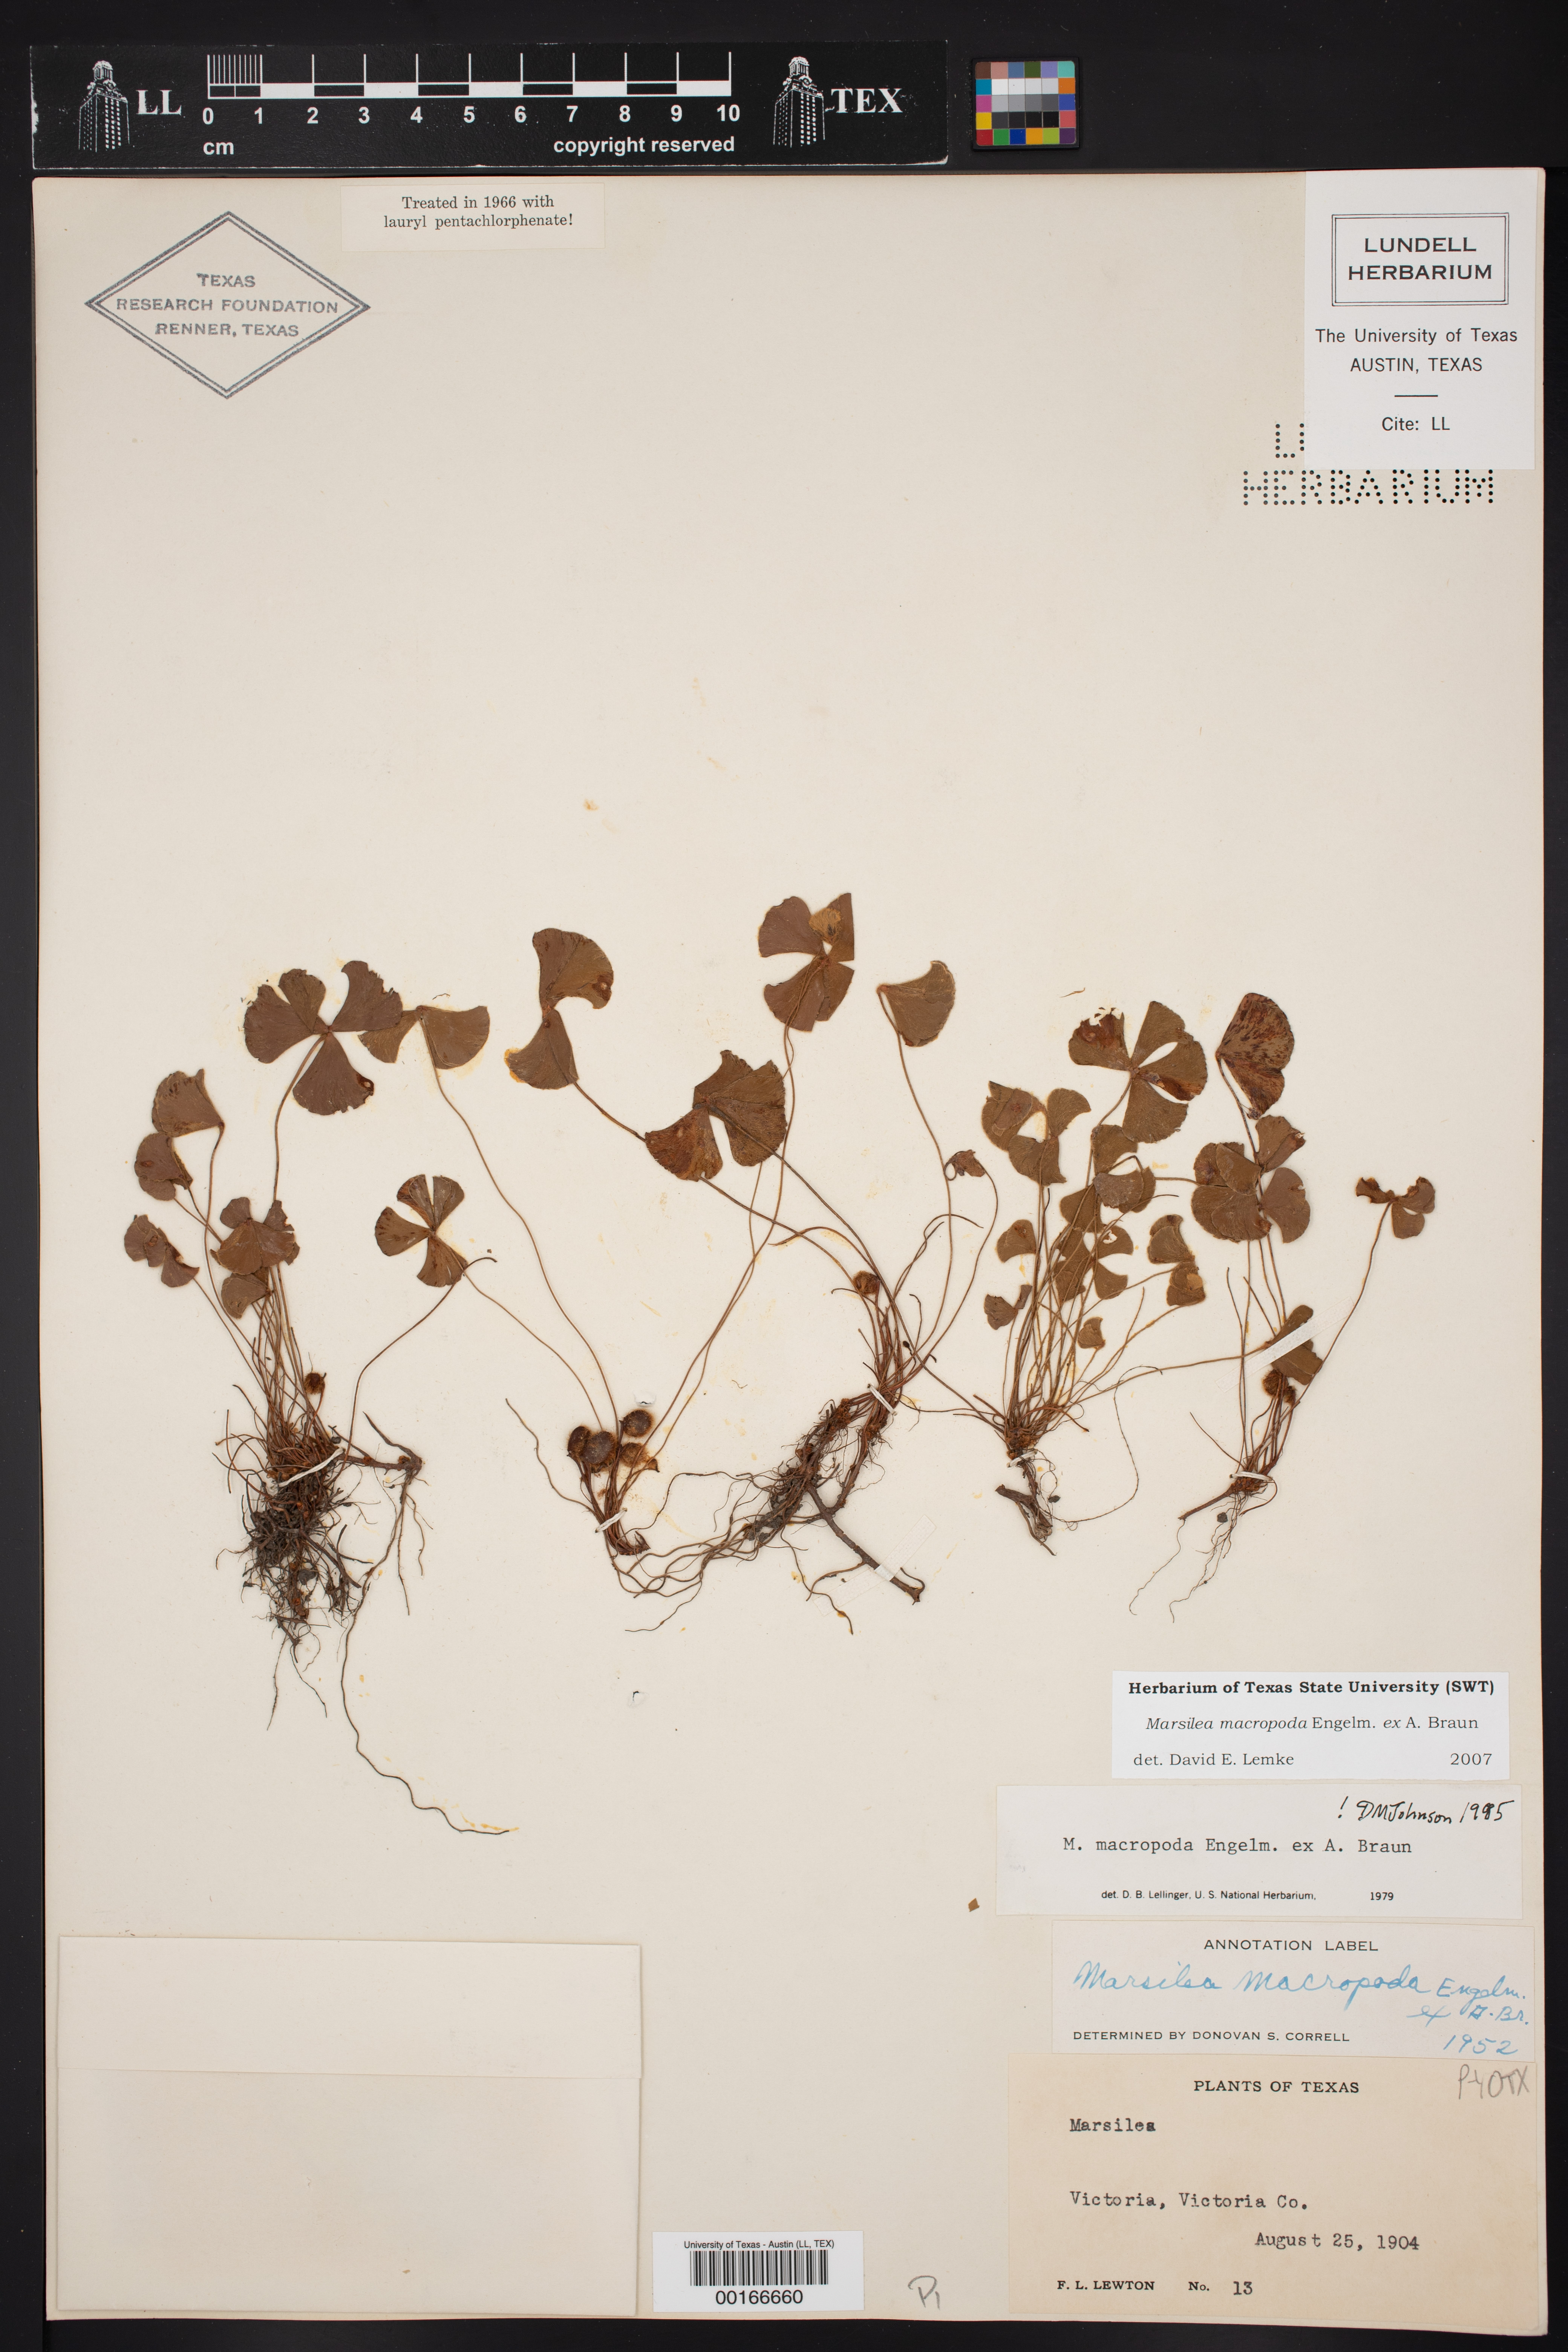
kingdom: Plantae
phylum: Tracheophyta
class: Polypodiopsida
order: Salviniales
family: Marsileaceae
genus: Marsilea
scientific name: Marsilea macropoda
